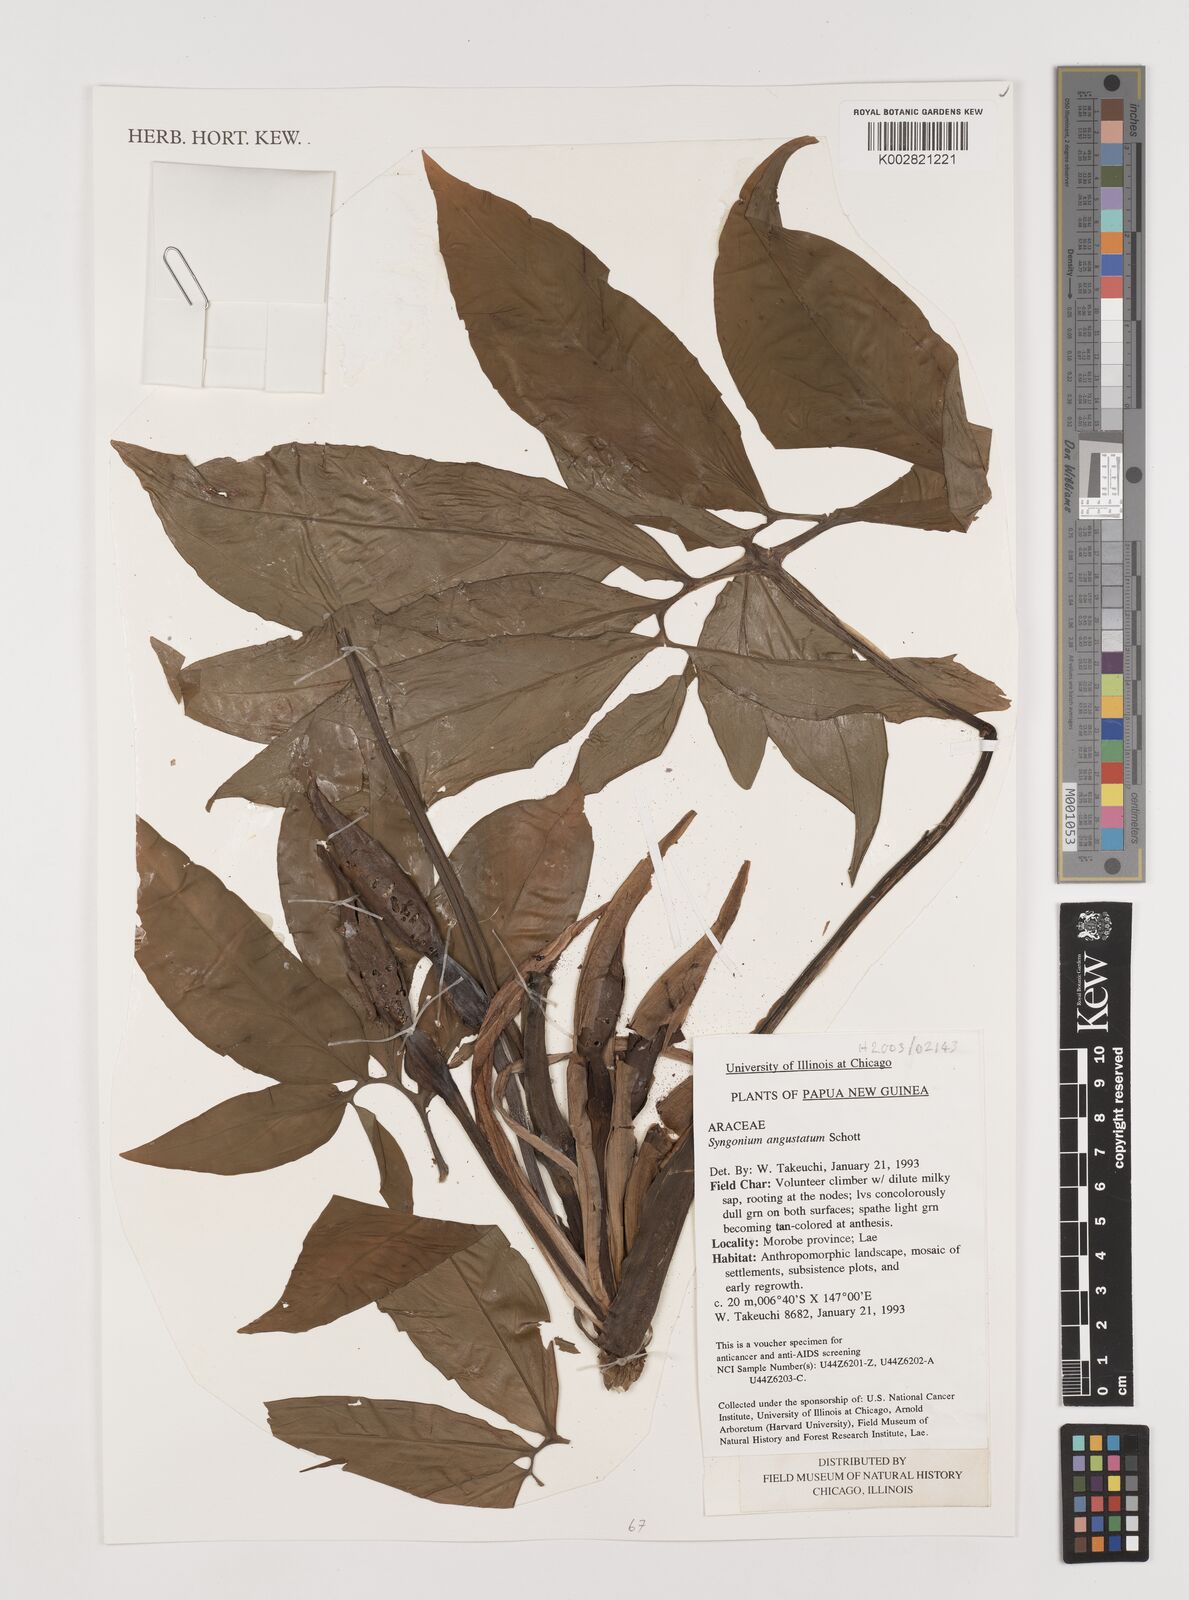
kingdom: Plantae
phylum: Tracheophyta
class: Liliopsida
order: Alismatales
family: Araceae
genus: Syngonium
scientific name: Syngonium angustatum
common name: Fivefingers
